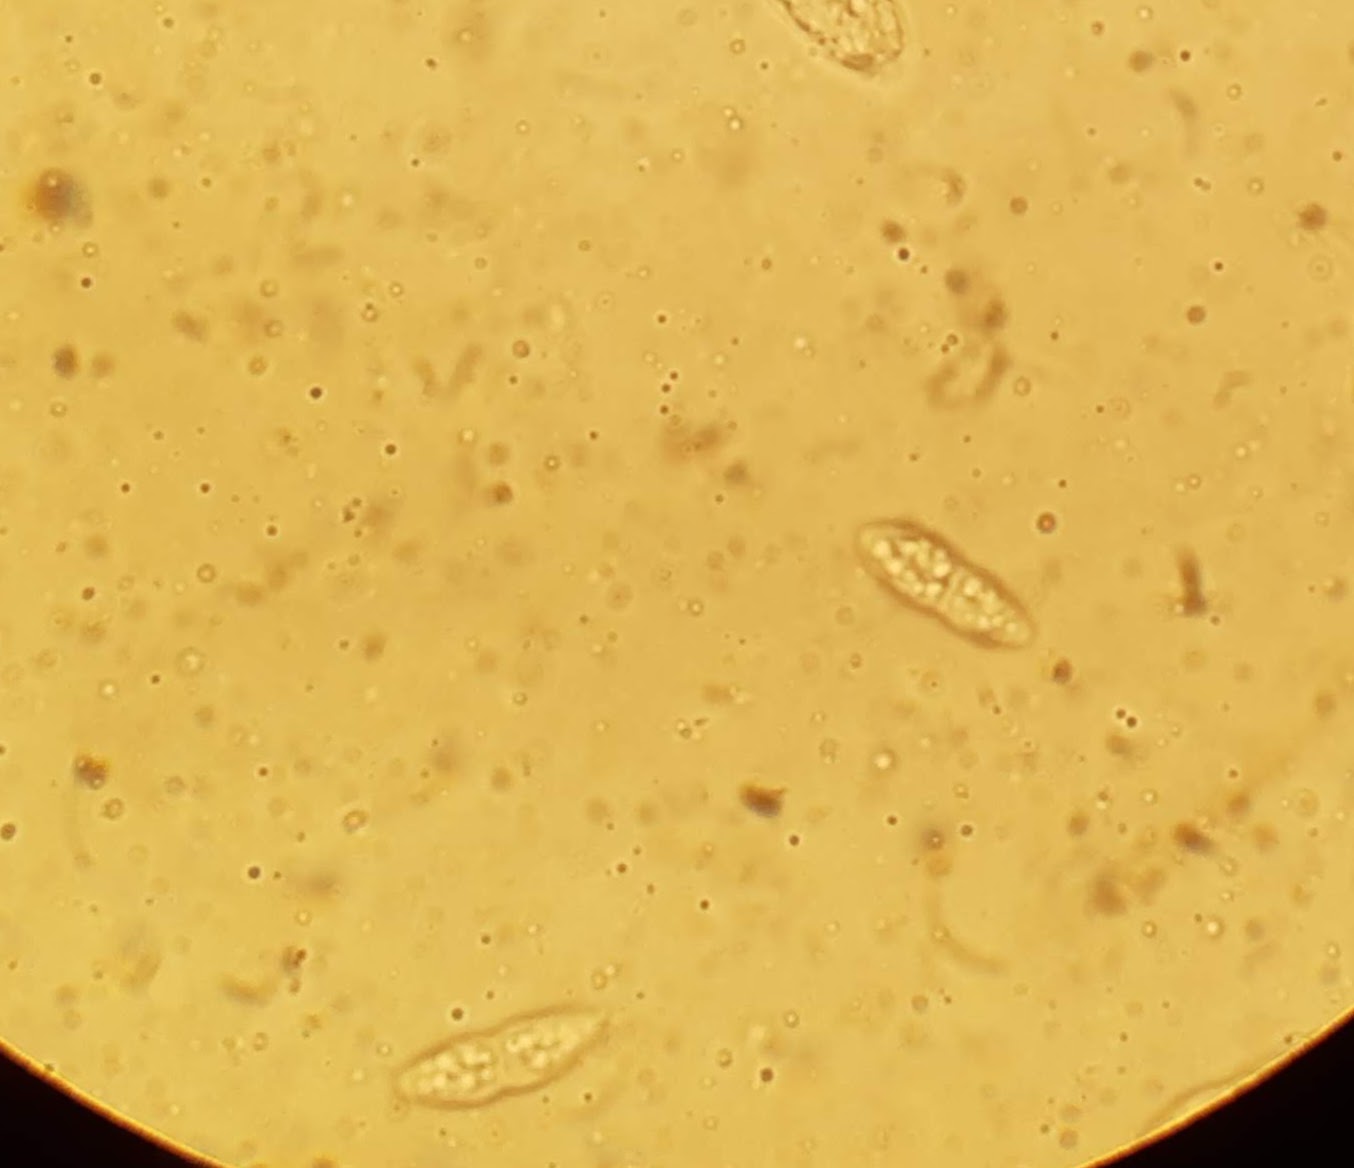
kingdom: Fungi
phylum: Ascomycota
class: Sordariomycetes
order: Diaporthales
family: Erythrogloeaceae
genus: Dendrostoma
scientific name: Dendrostoma leiphaemia
